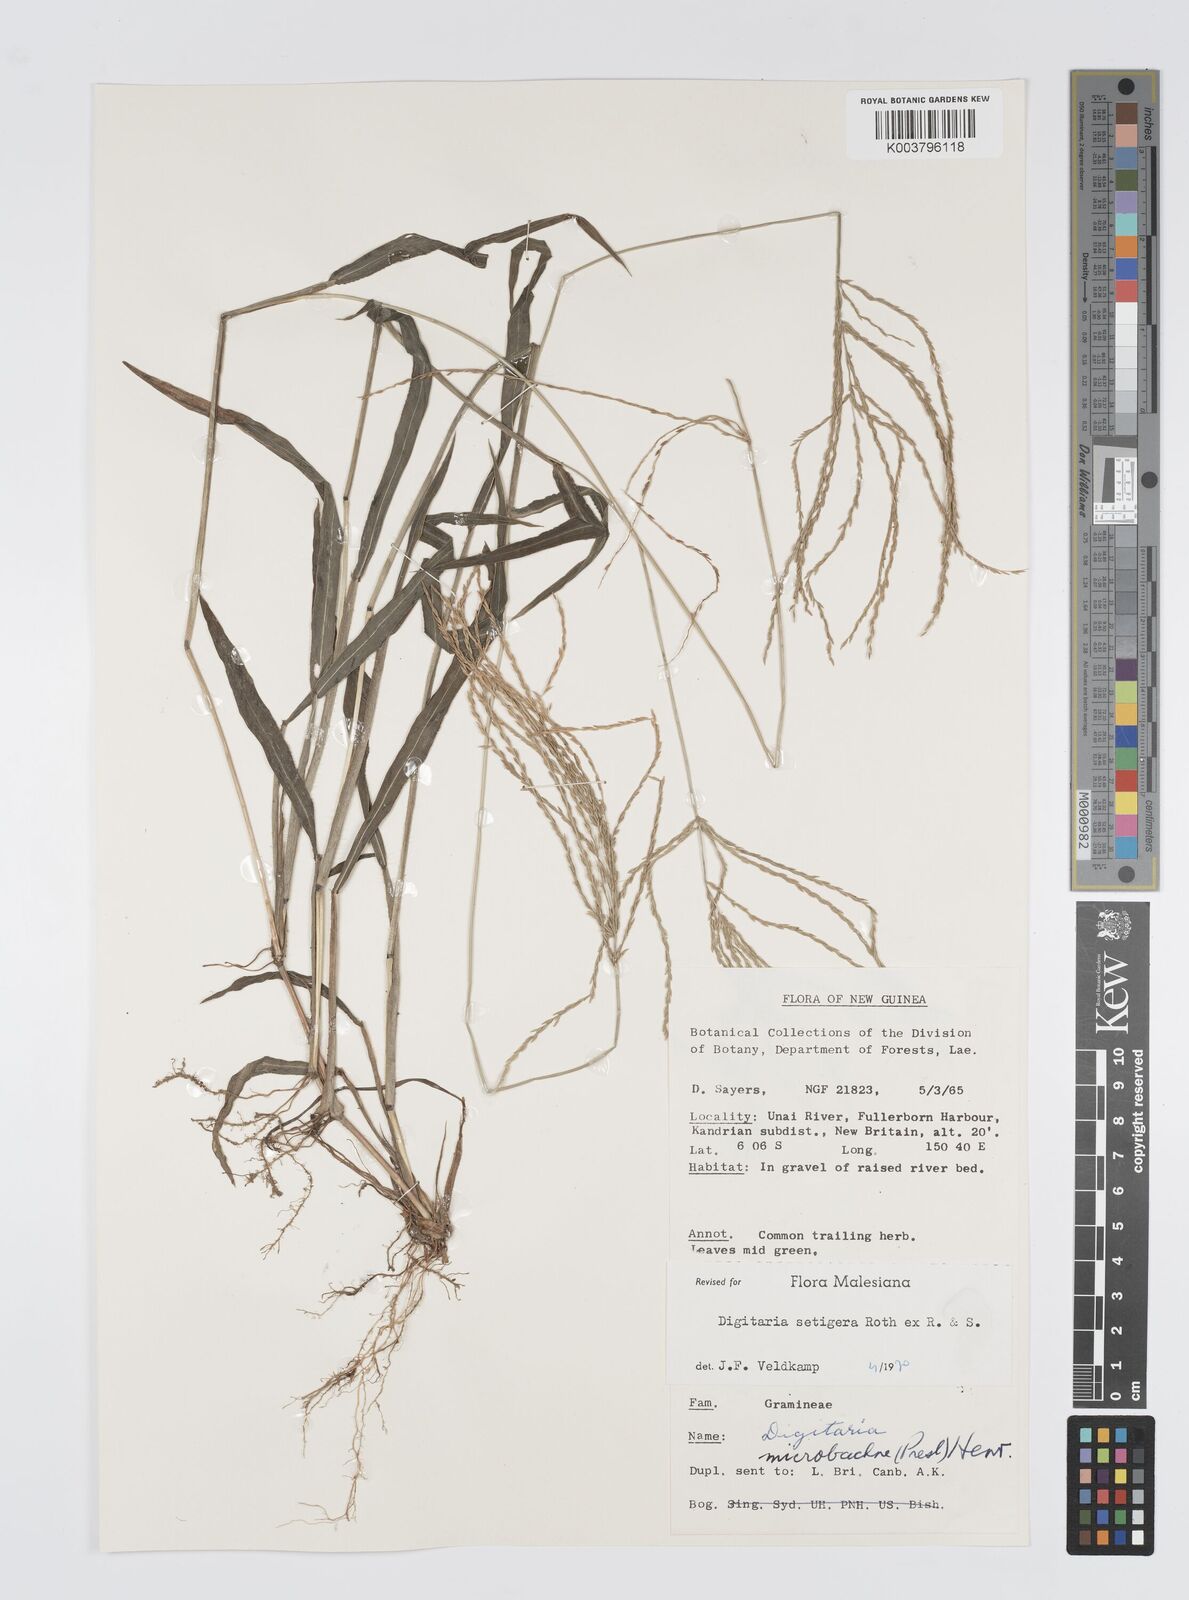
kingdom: Plantae
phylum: Tracheophyta
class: Liliopsida
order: Poales
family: Poaceae
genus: Digitaria
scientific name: Digitaria setigera
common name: East indian crabgrass
